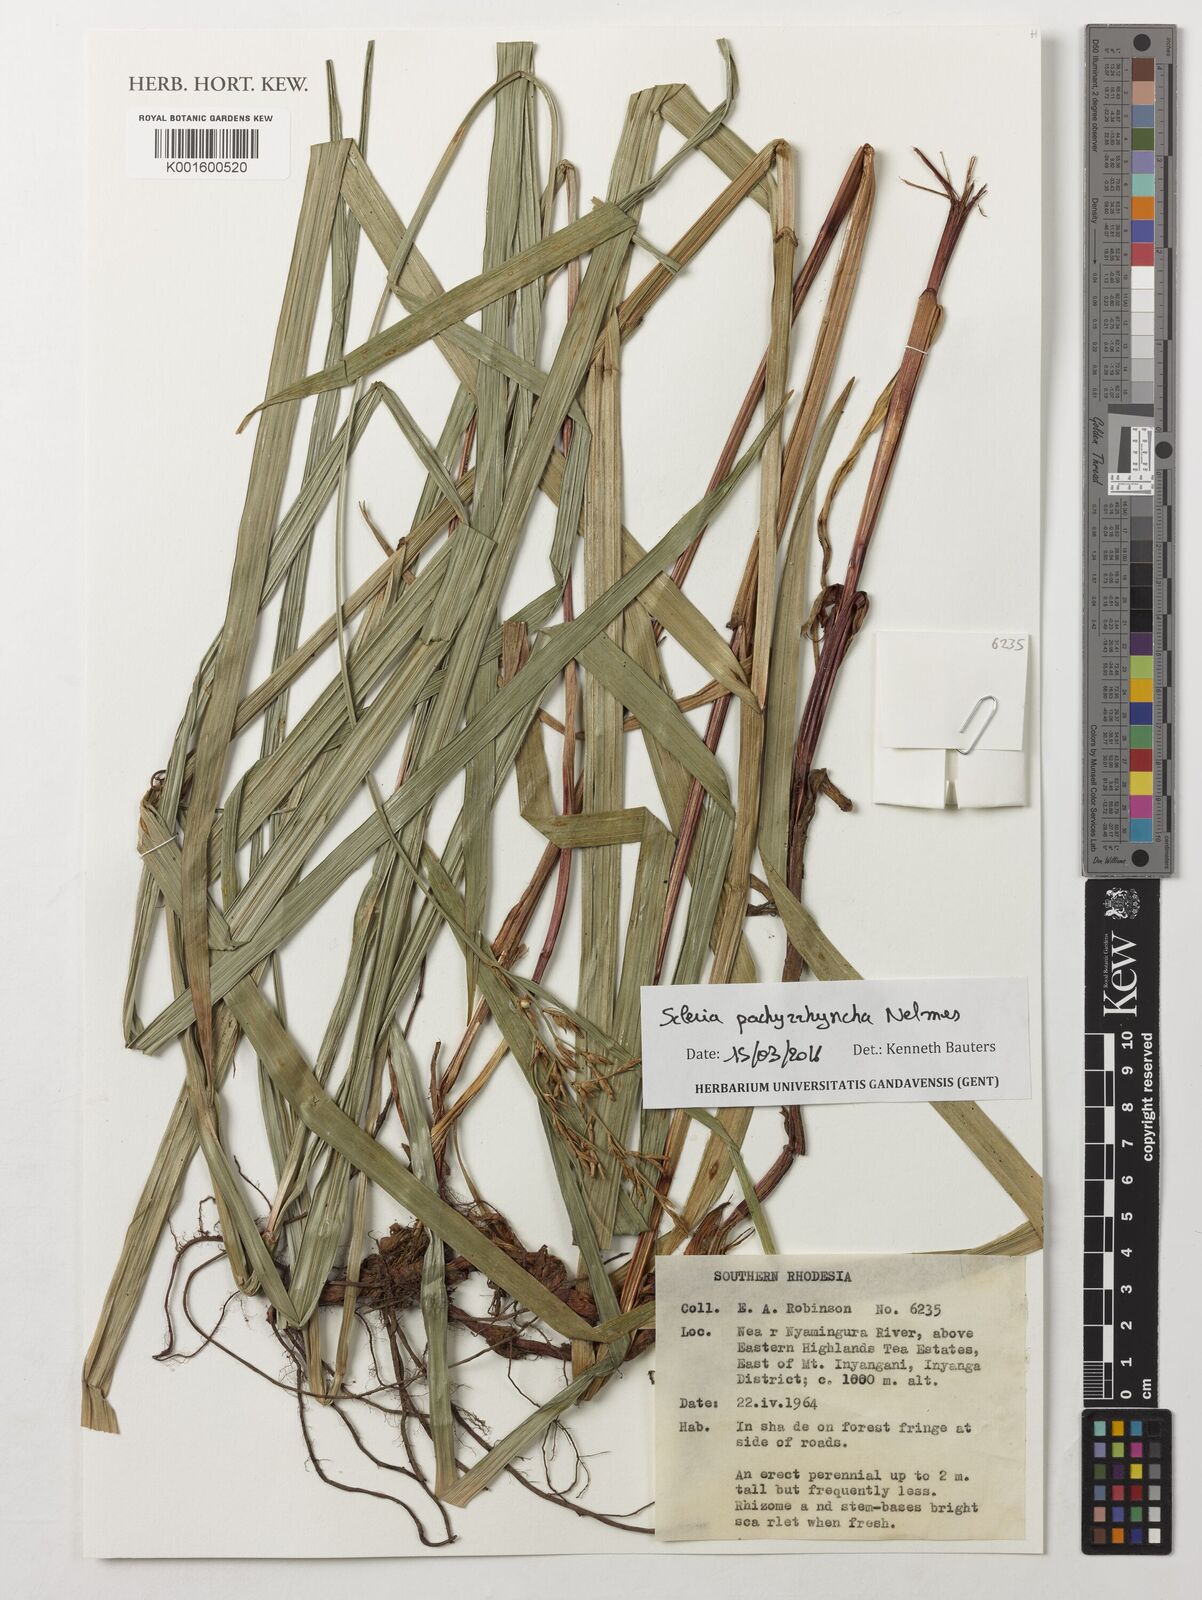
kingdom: Plantae
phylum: Tracheophyta
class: Liliopsida
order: Poales
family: Cyperaceae
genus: Scleria
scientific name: Scleria pachyrrhyncha
